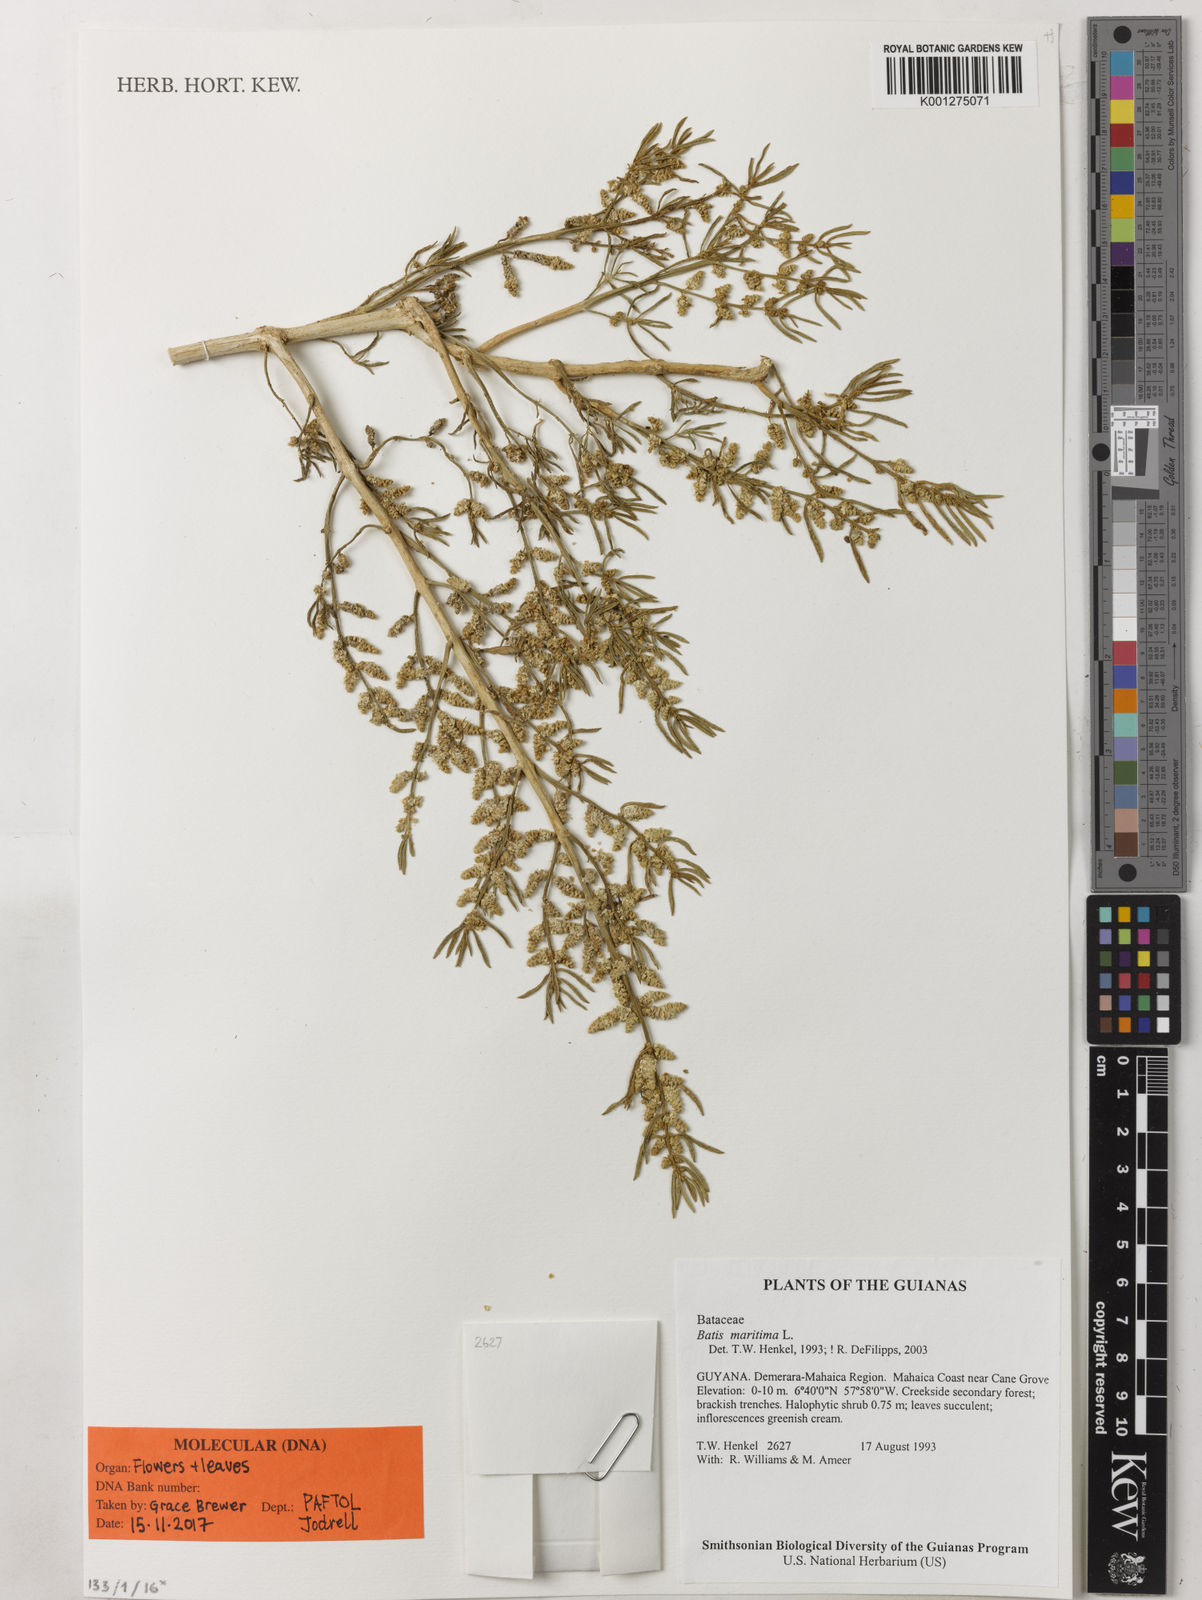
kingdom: Plantae
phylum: Tracheophyta
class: Magnoliopsida
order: Brassicales
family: Bataceae
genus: Batis
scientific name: Batis maritima
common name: Turtleweed
